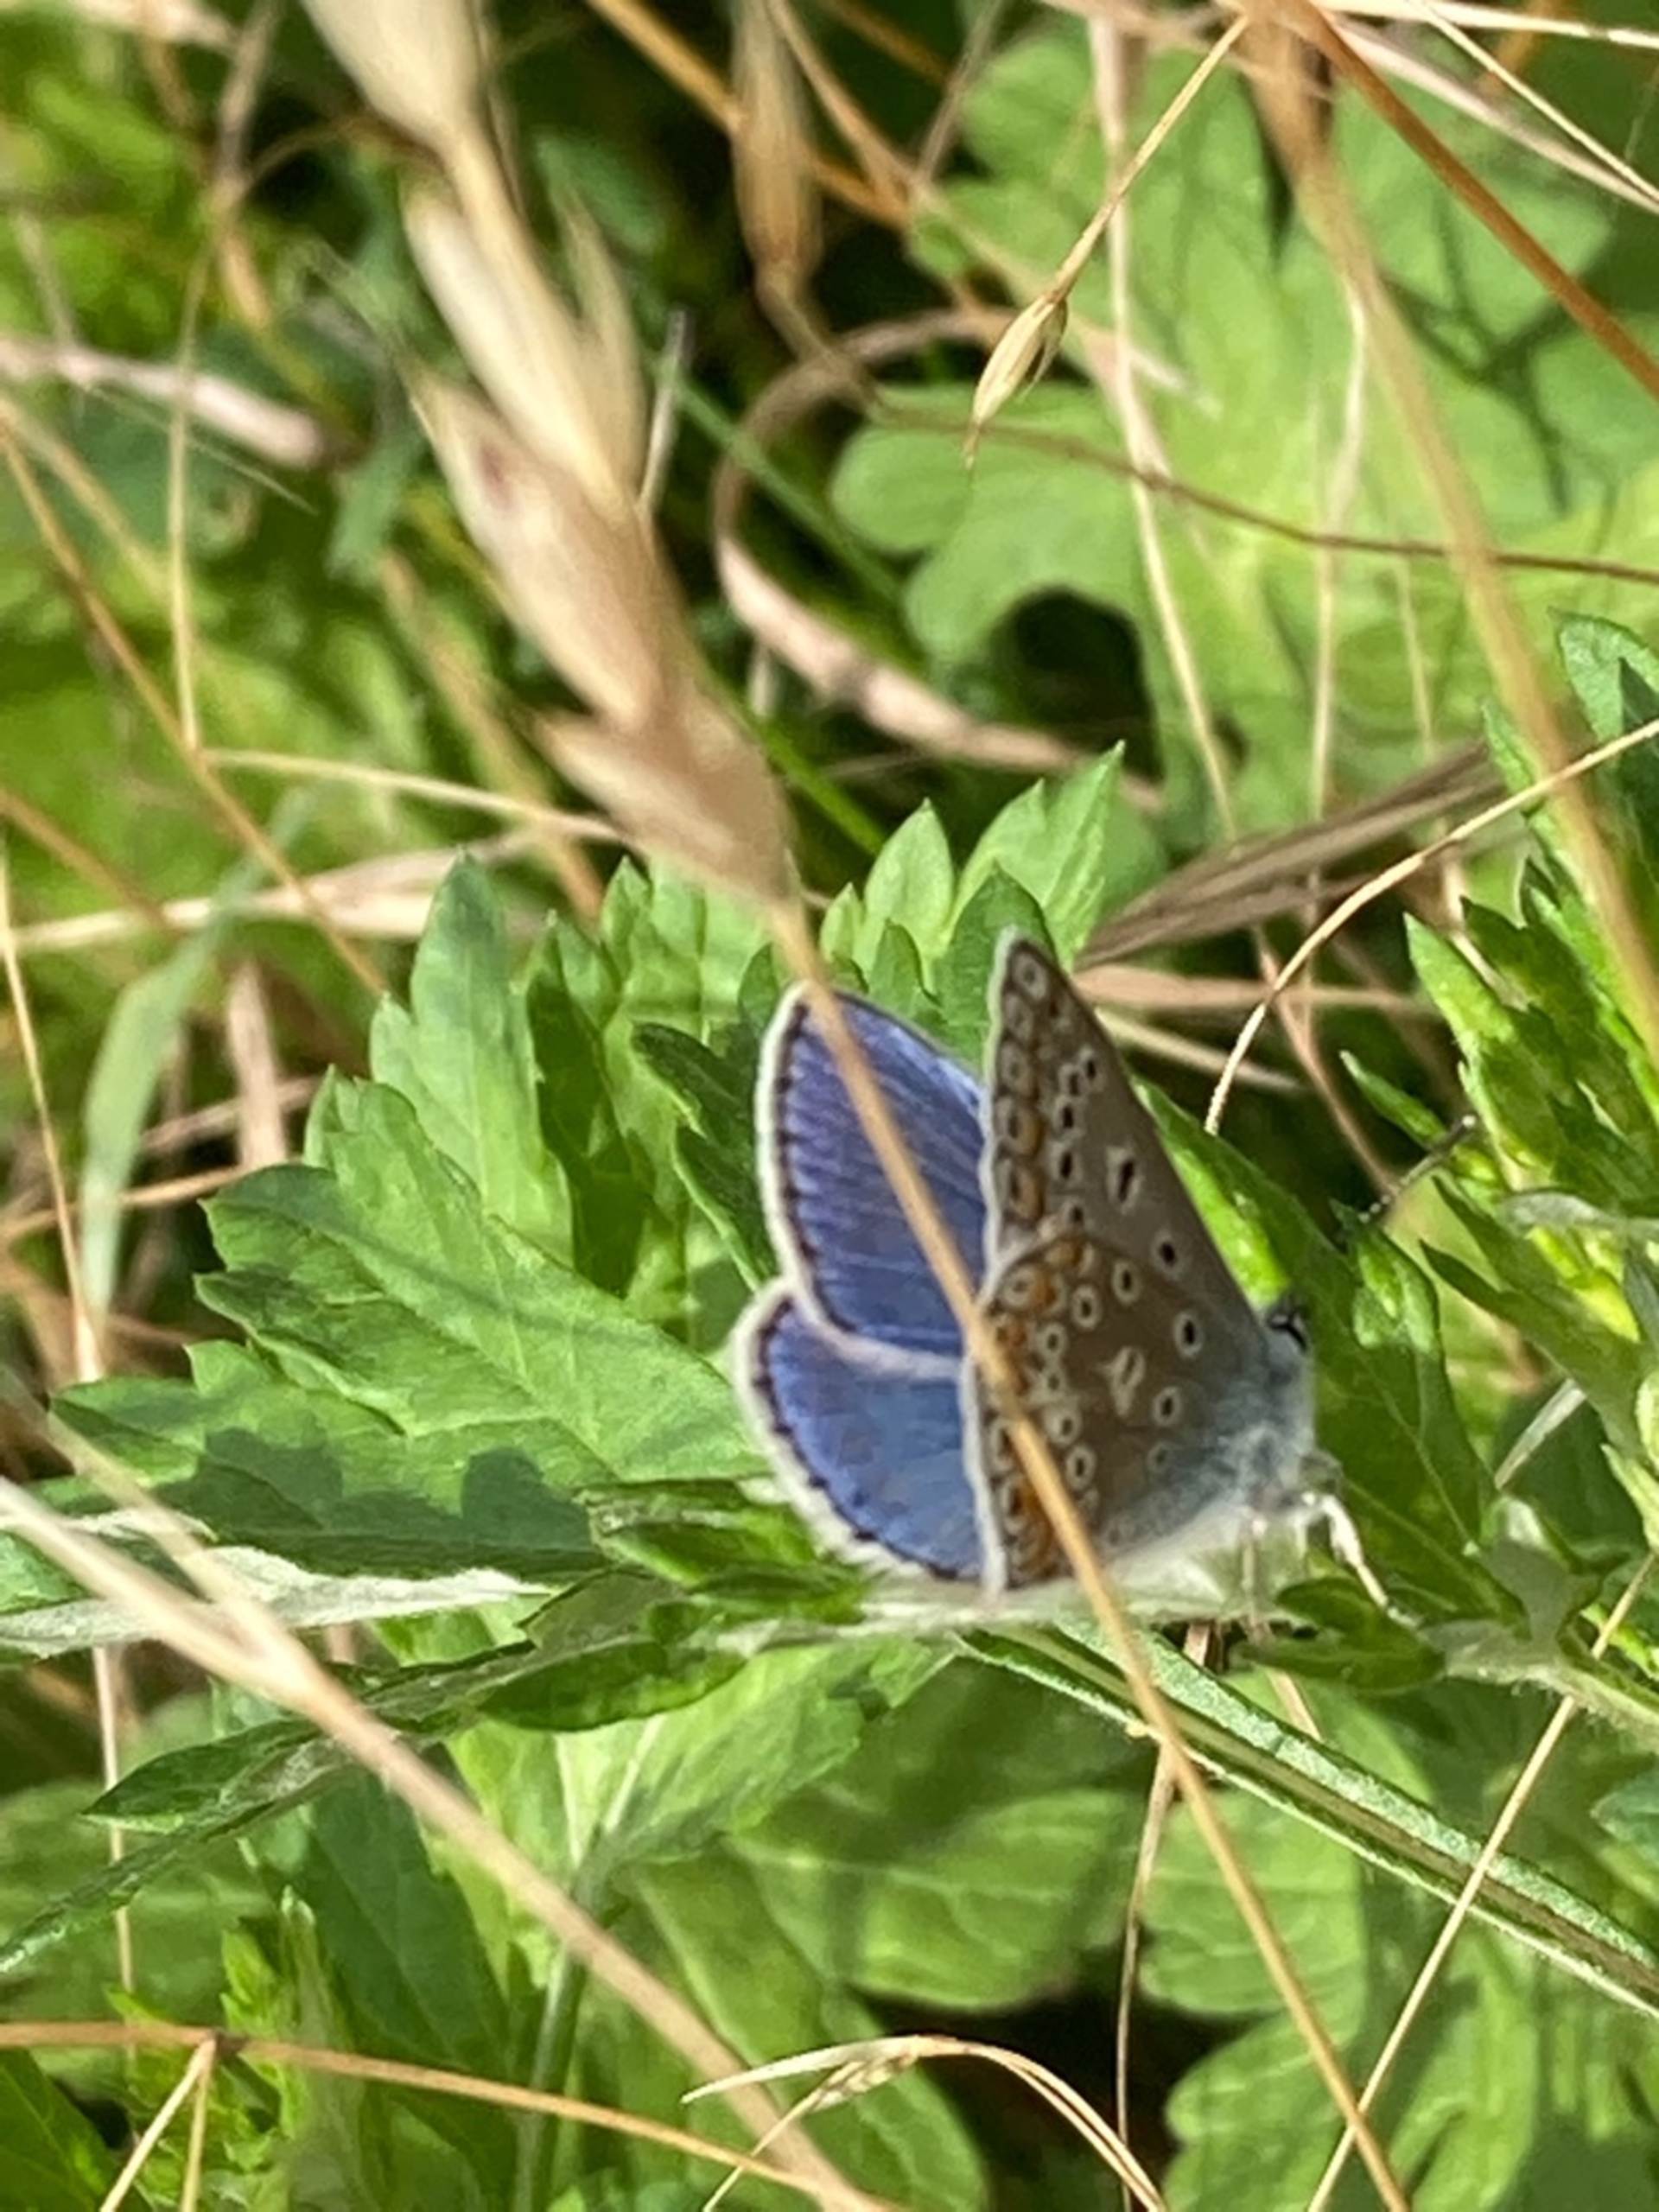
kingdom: Animalia
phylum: Arthropoda
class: Insecta
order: Lepidoptera
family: Lycaenidae
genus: Polyommatus
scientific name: Polyommatus icarus
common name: Almindelig blåfugl
